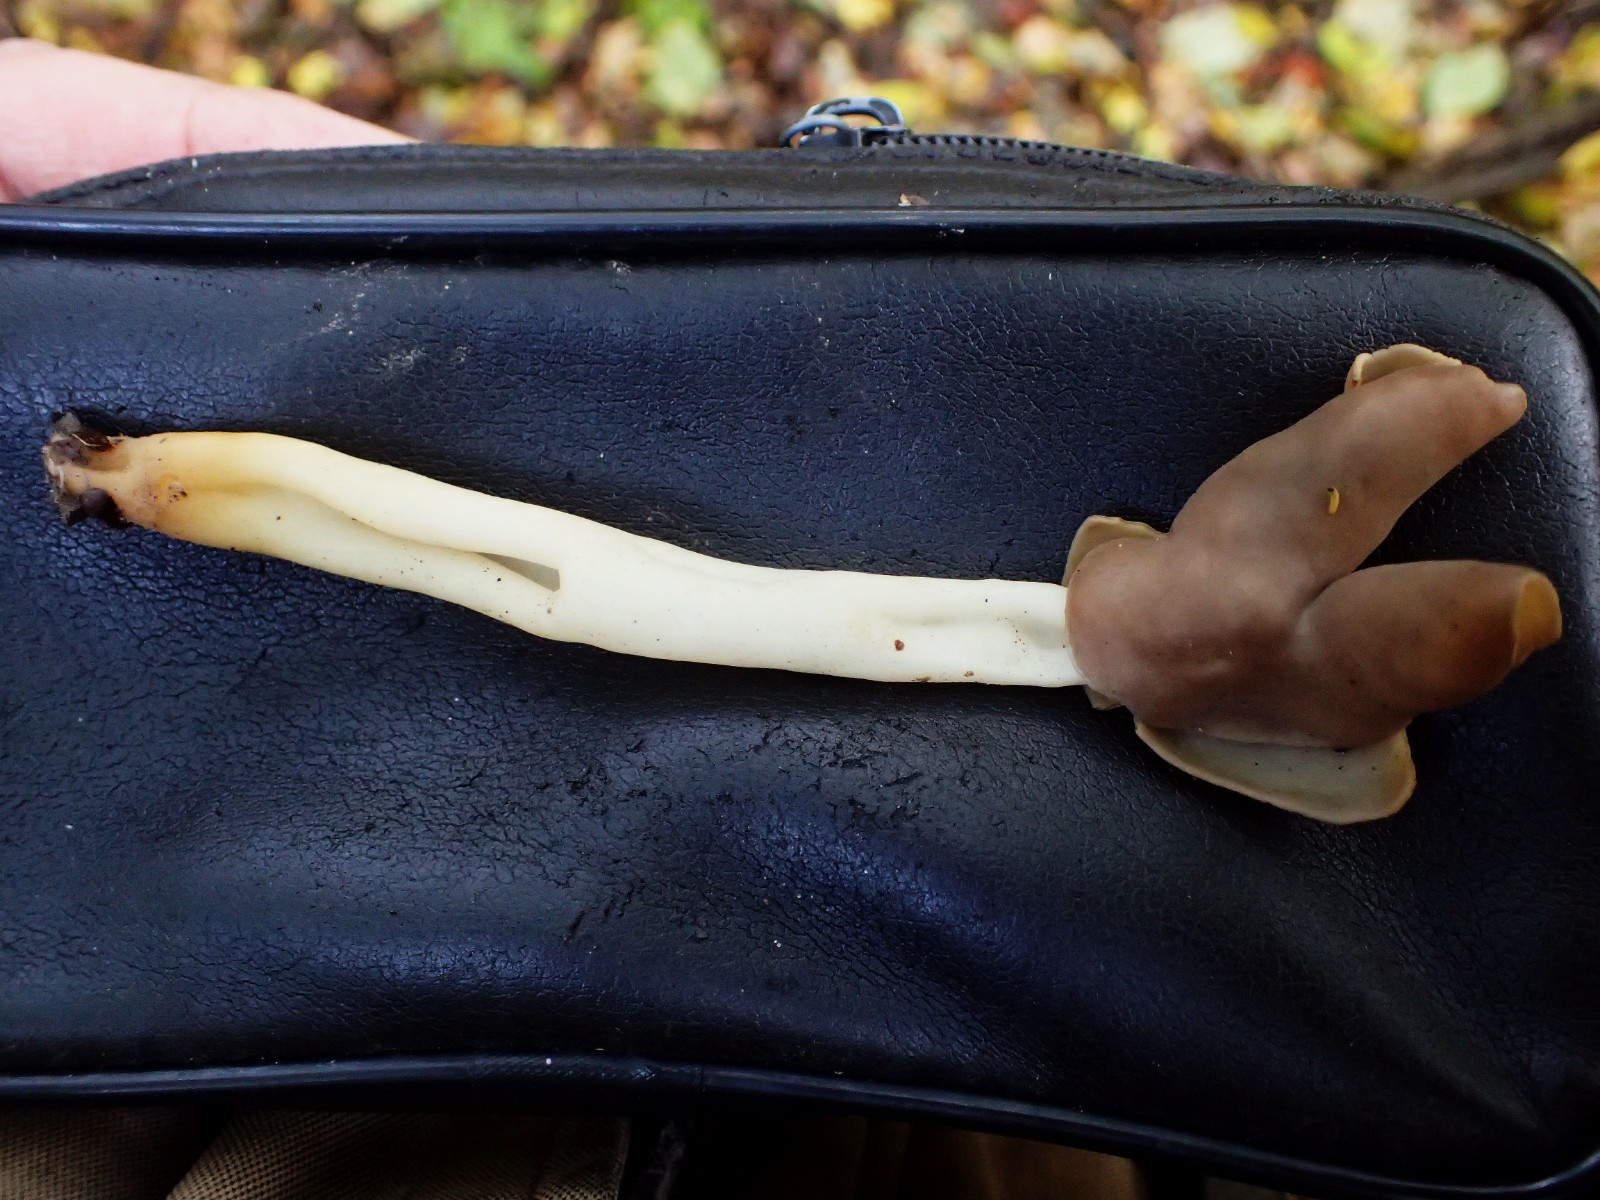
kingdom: Fungi
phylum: Ascomycota
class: Pezizomycetes
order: Pezizales
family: Helvellaceae
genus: Helvella
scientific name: Helvella elastica
